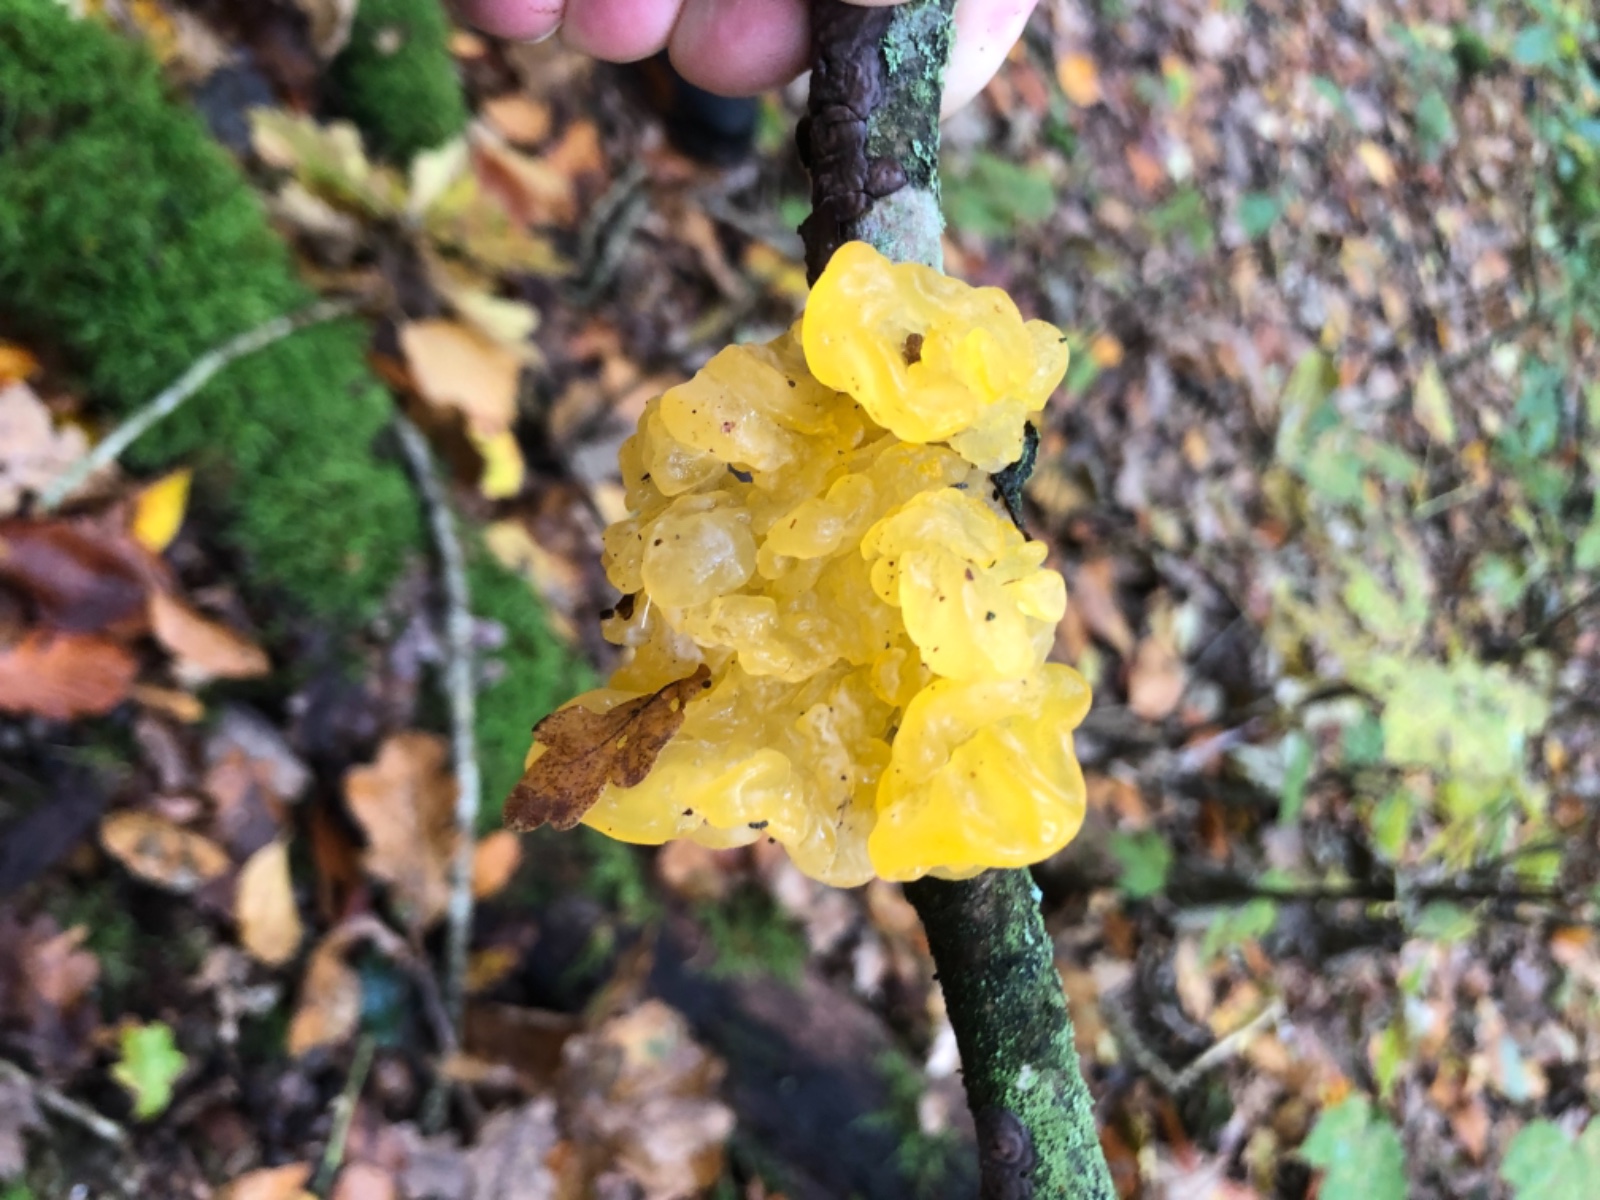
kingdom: Fungi
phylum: Basidiomycota
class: Tremellomycetes
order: Tremellales
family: Tremellaceae
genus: Tremella
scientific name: Tremella mesenterica
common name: gul bævresvamp
